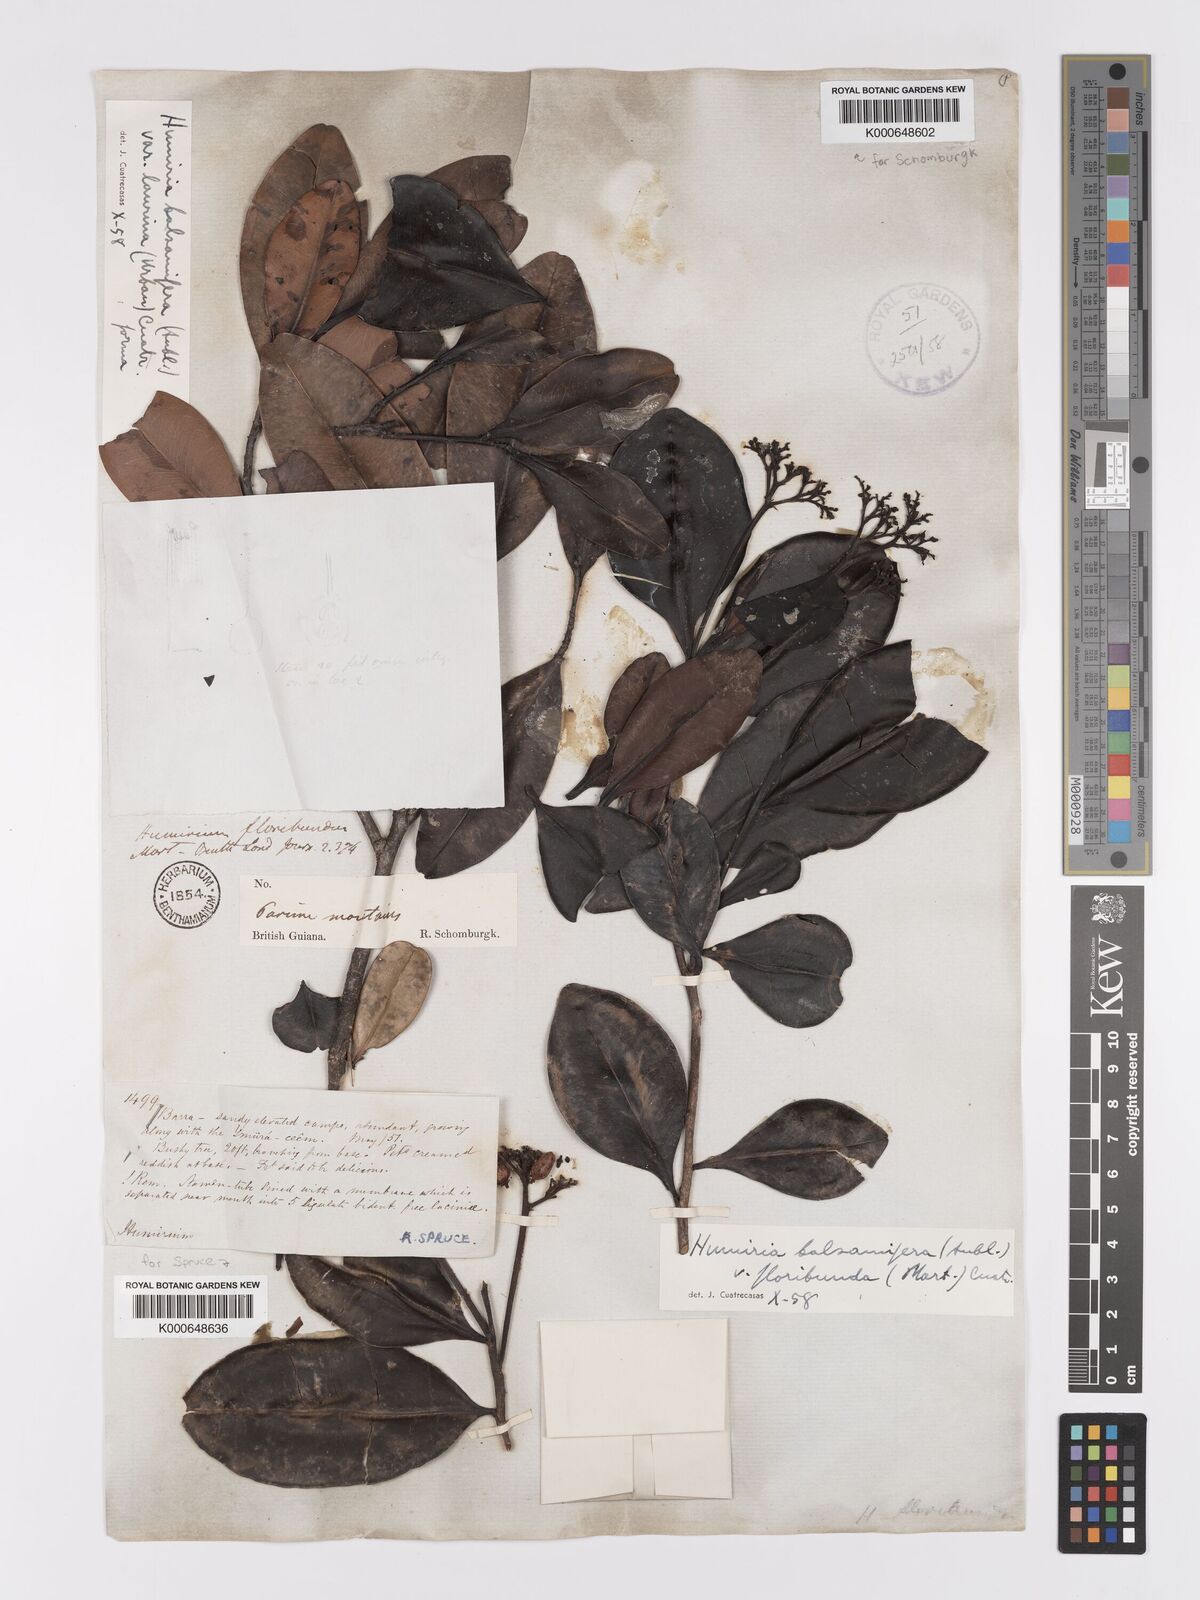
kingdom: Plantae
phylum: Tracheophyta
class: Magnoliopsida
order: Malpighiales
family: Humiriaceae
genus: Humiria
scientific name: Humiria balsamifera
